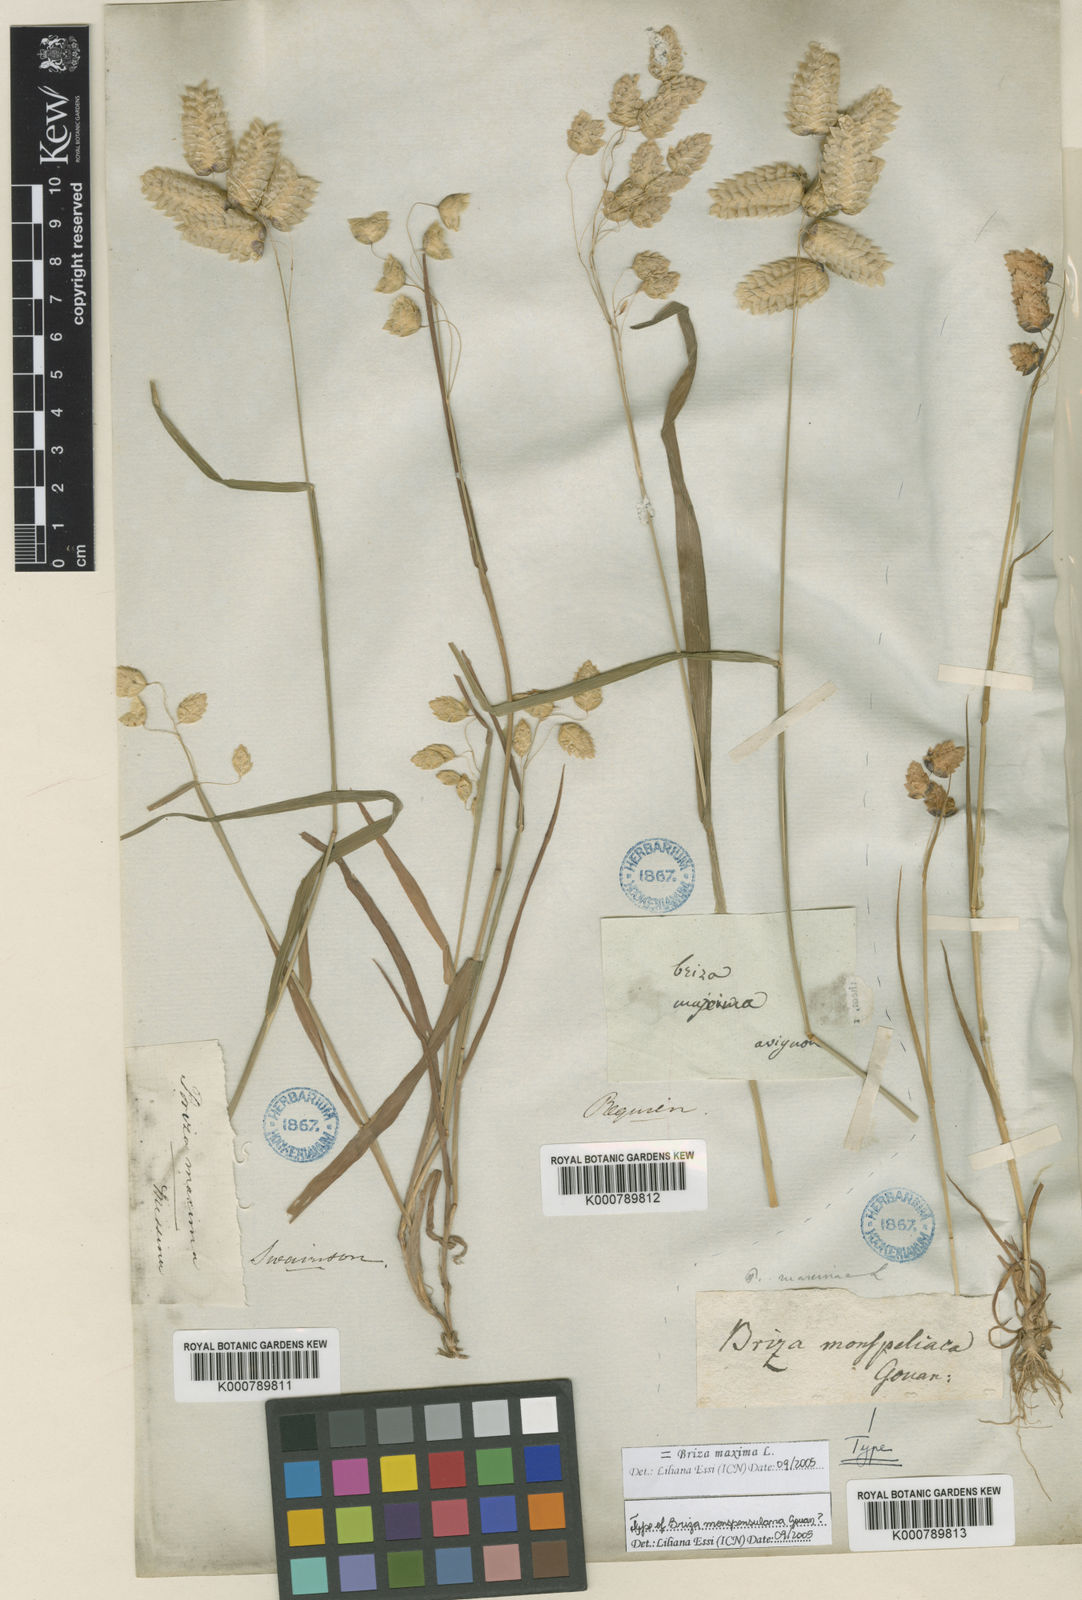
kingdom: Plantae
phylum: Tracheophyta
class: Liliopsida
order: Poales
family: Poaceae
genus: Briza
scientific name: Briza maxima
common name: Big quakinggrass
